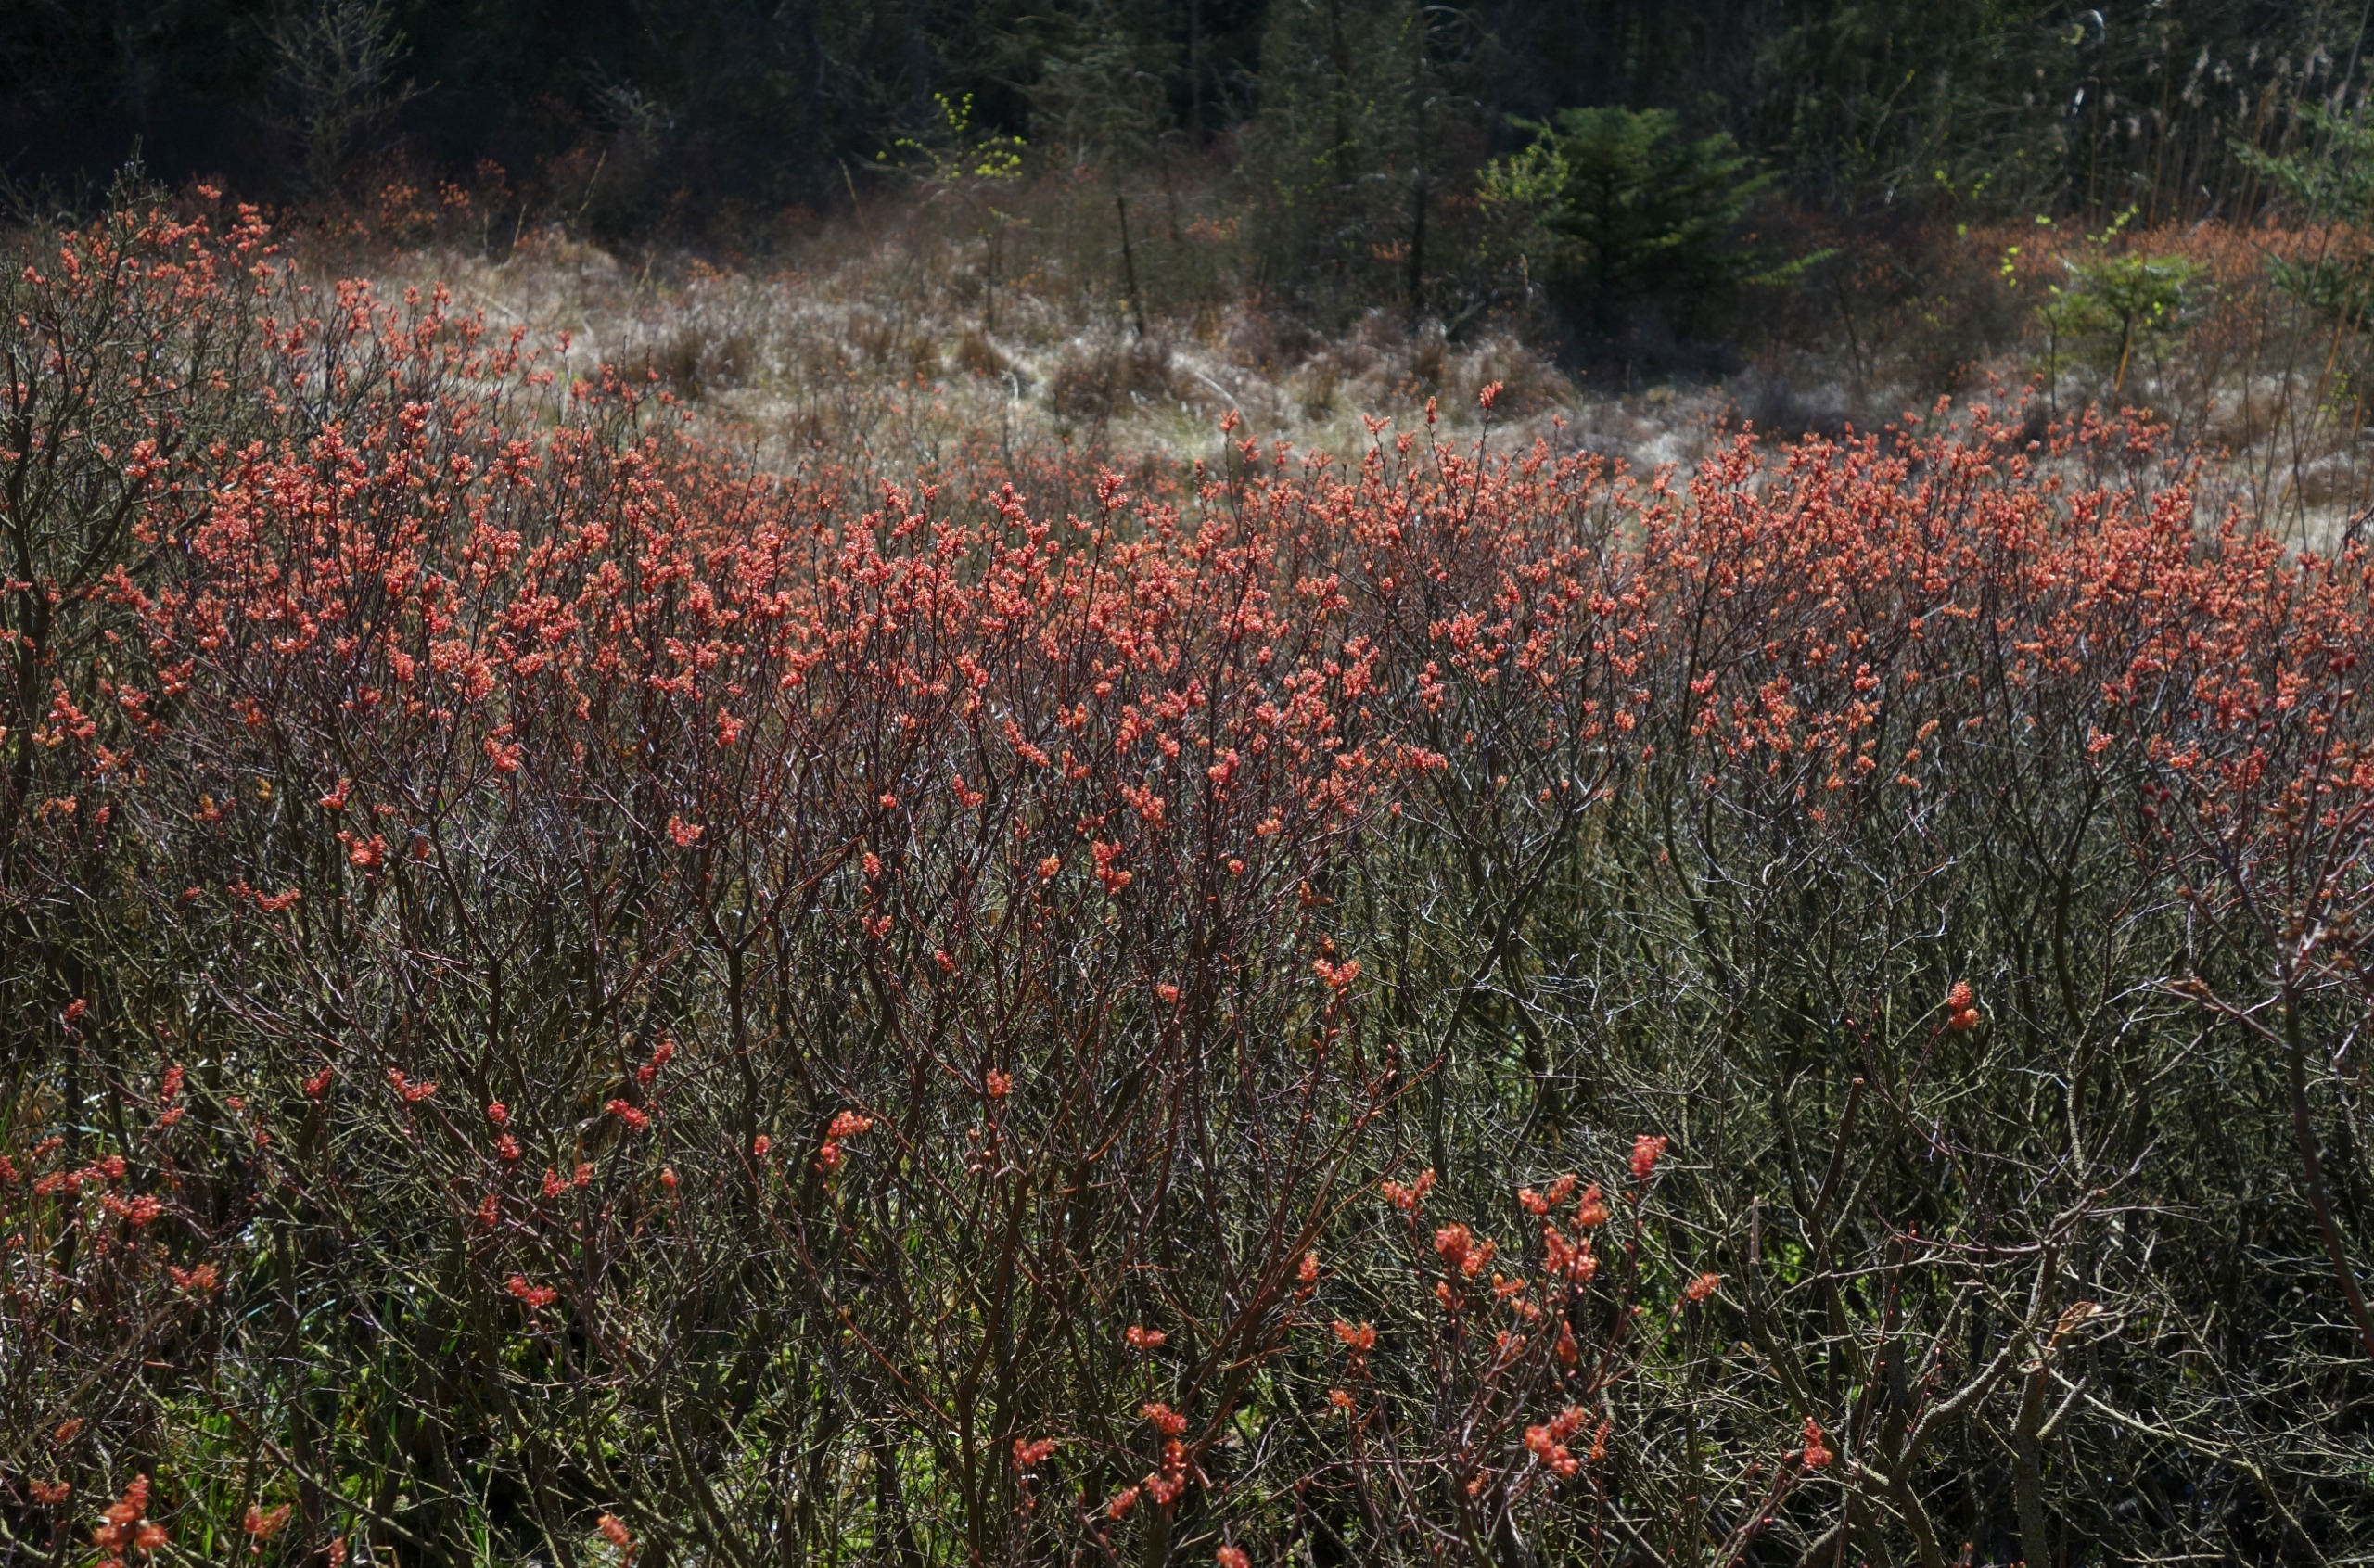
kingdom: Plantae
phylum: Tracheophyta
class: Magnoliopsida
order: Fagales
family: Myricaceae
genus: Myrica
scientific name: Myrica gale
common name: Pors
